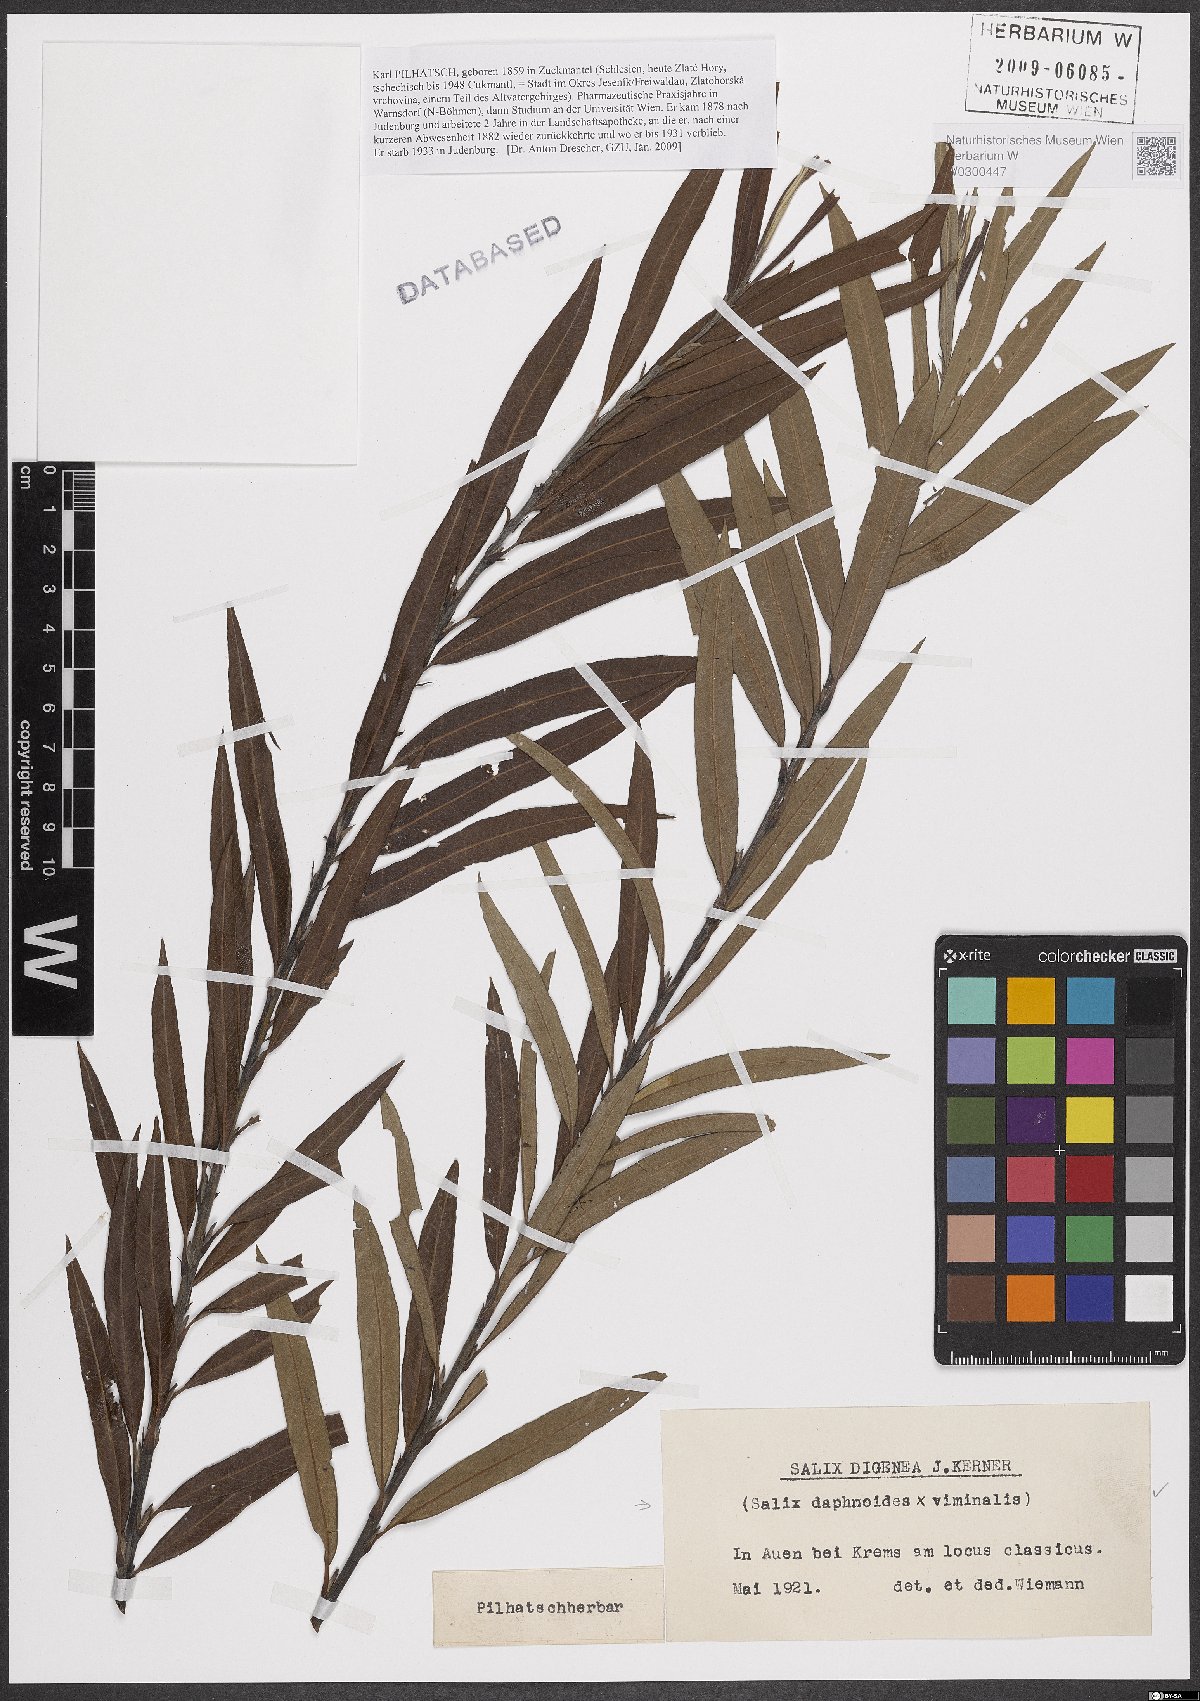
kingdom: Plantae
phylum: Tracheophyta
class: Magnoliopsida
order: Malpighiales
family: Salicaceae
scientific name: Salicaceae
